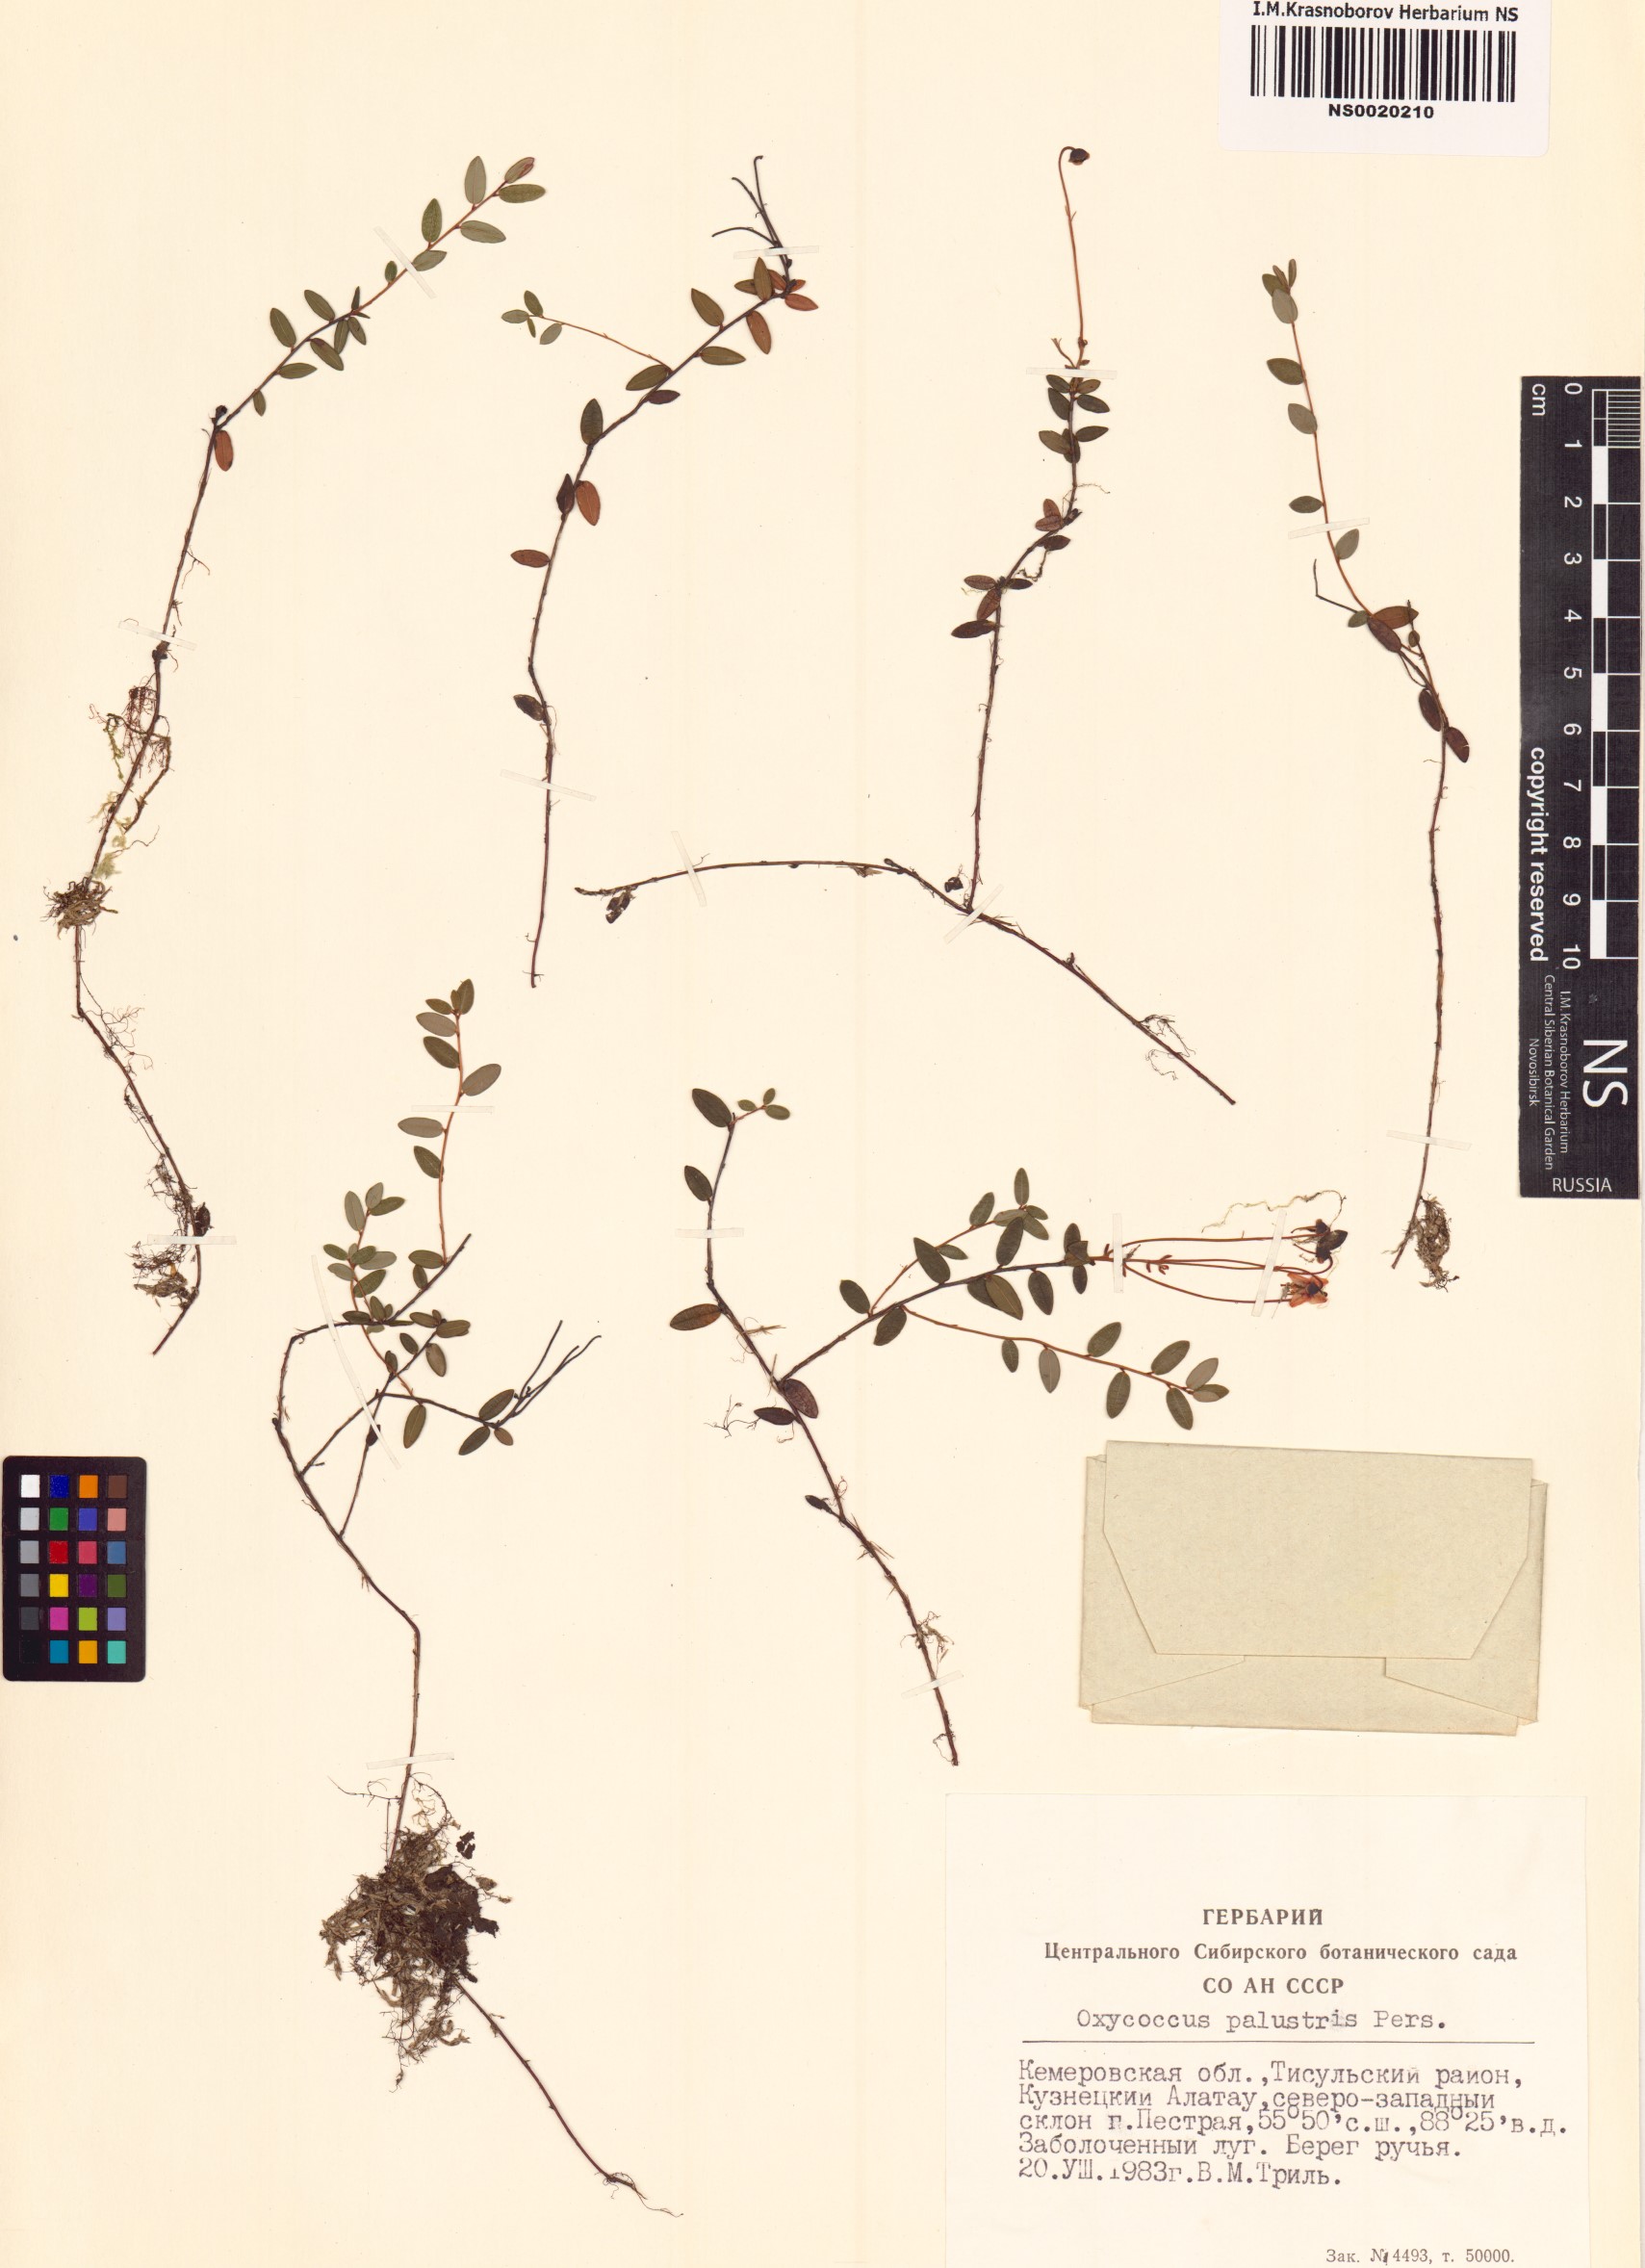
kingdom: Plantae
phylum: Tracheophyta
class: Magnoliopsida
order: Ericales
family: Ericaceae
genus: Vaccinium
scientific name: Vaccinium oxycoccos
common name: Cranberry
